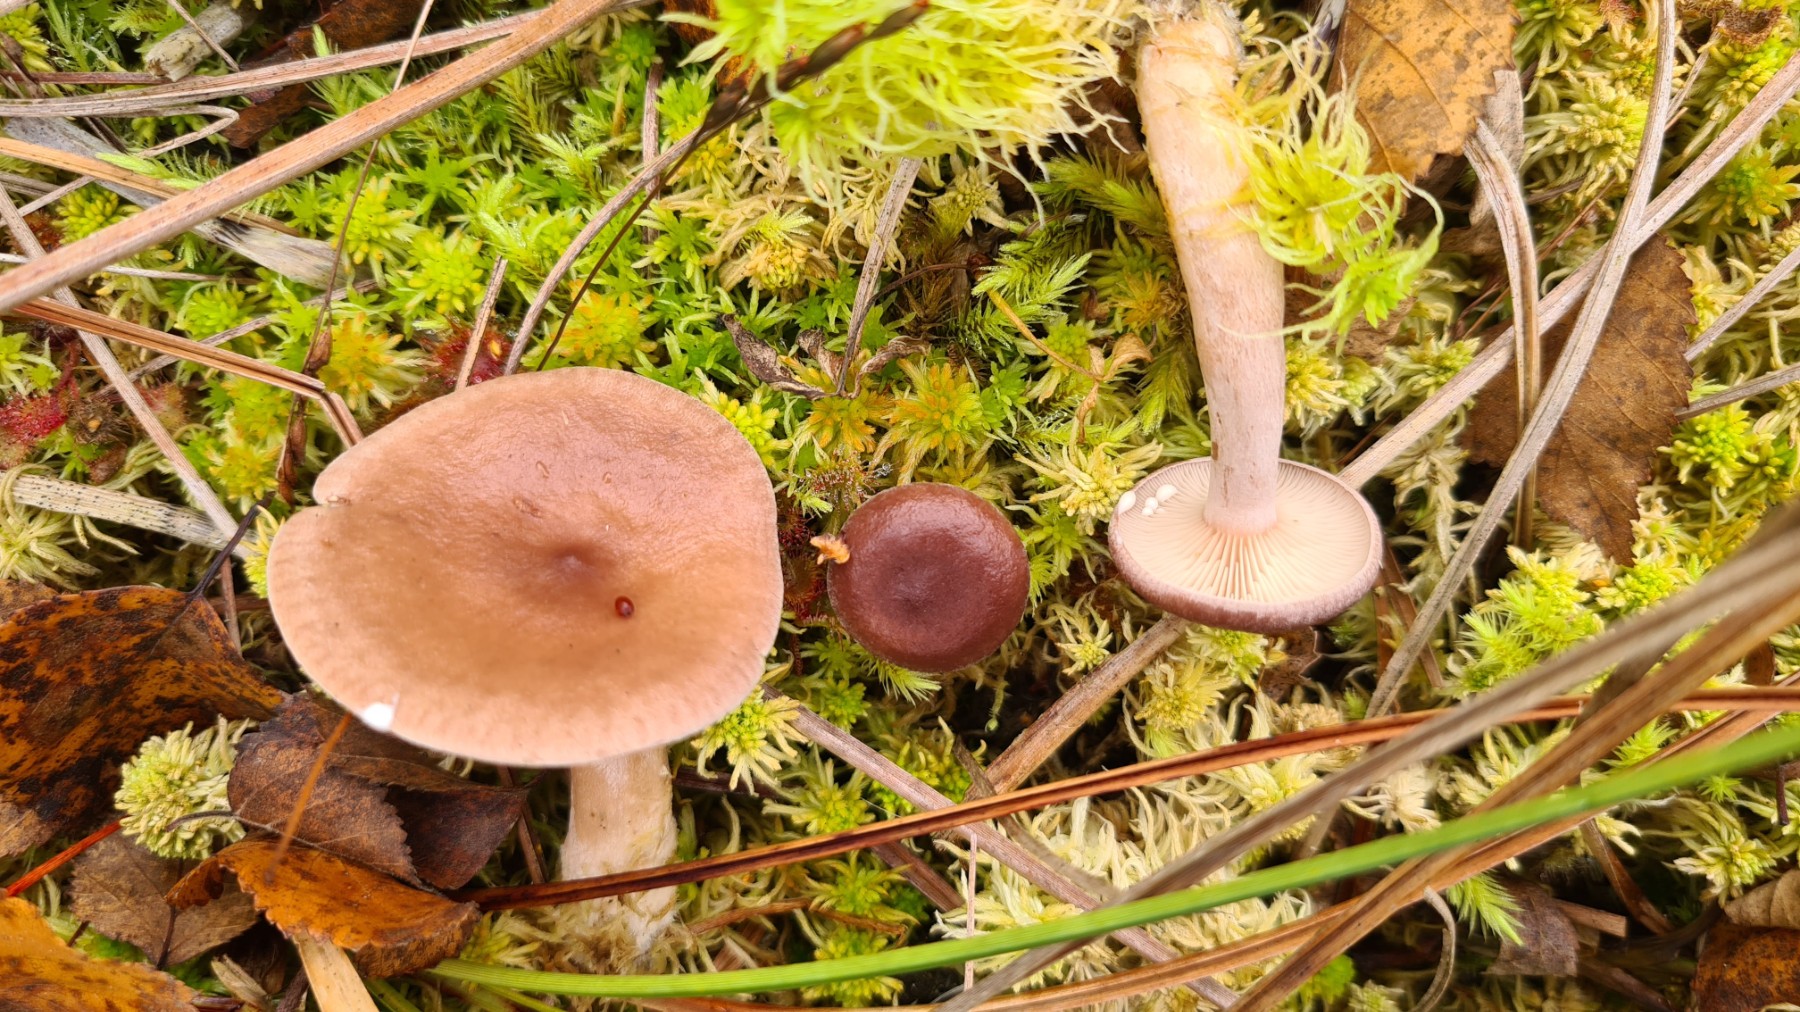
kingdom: Fungi
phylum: Basidiomycota
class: Agaricomycetes
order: Russulales
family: Russulaceae
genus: Lactarius
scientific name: Lactarius glyciosmus
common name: kokos-mælkehat
